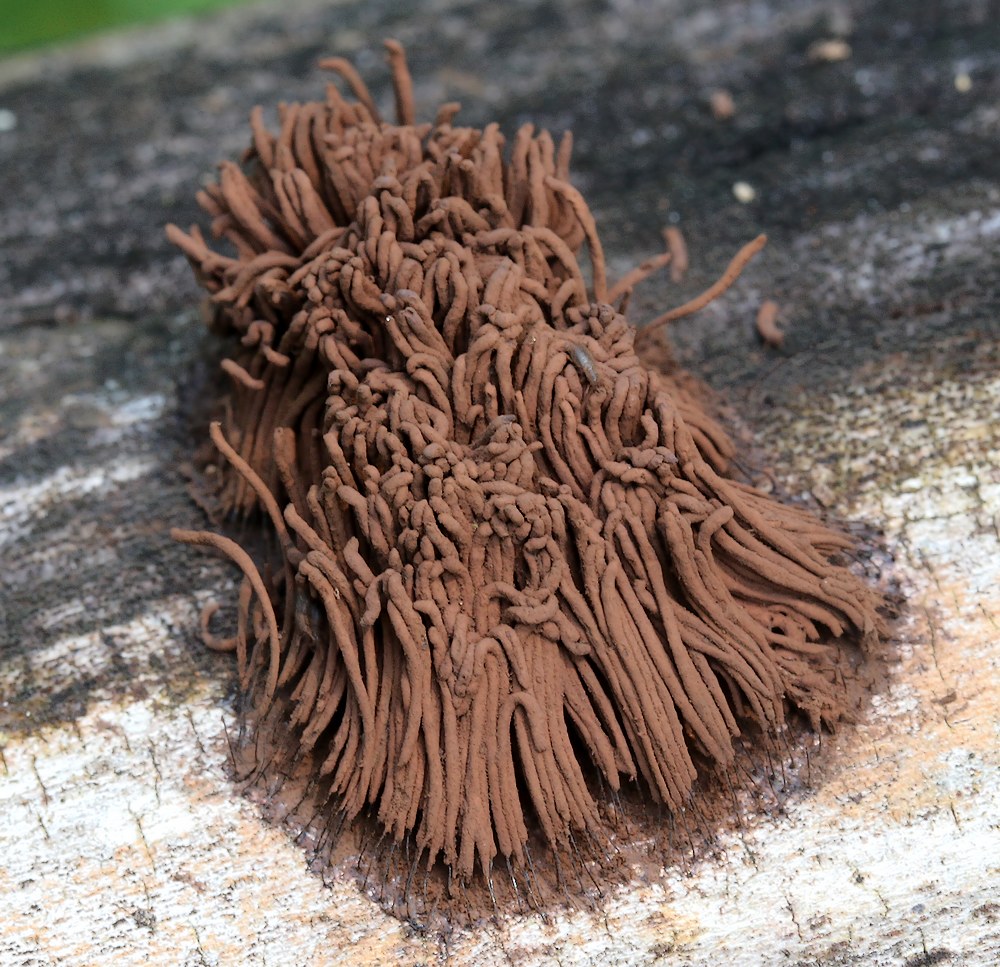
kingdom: Protozoa
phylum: Mycetozoa
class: Myxomycetes
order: Stemonitidales
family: Stemonitidaceae
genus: Stemonitis
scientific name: Stemonitis
